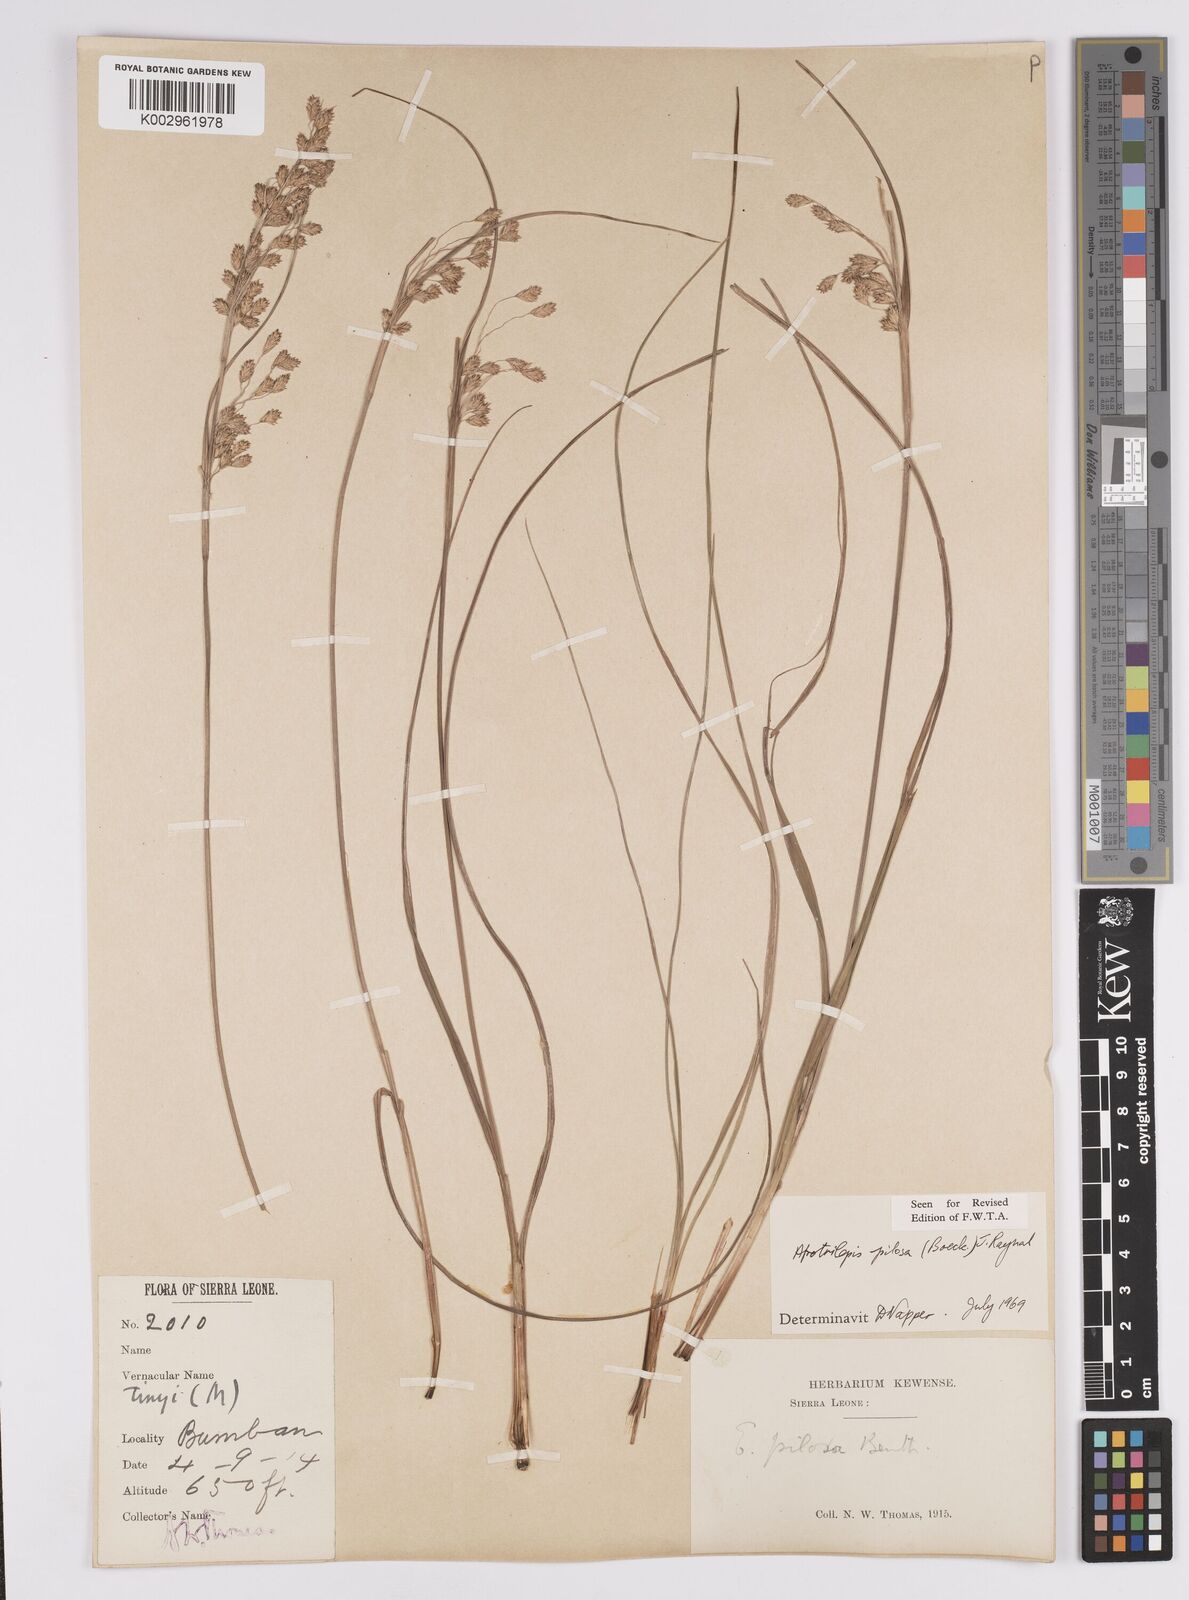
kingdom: Plantae
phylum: Tracheophyta
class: Liliopsida
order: Poales
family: Cyperaceae
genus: Afrotrilepis
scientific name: Afrotrilepis pilosa
